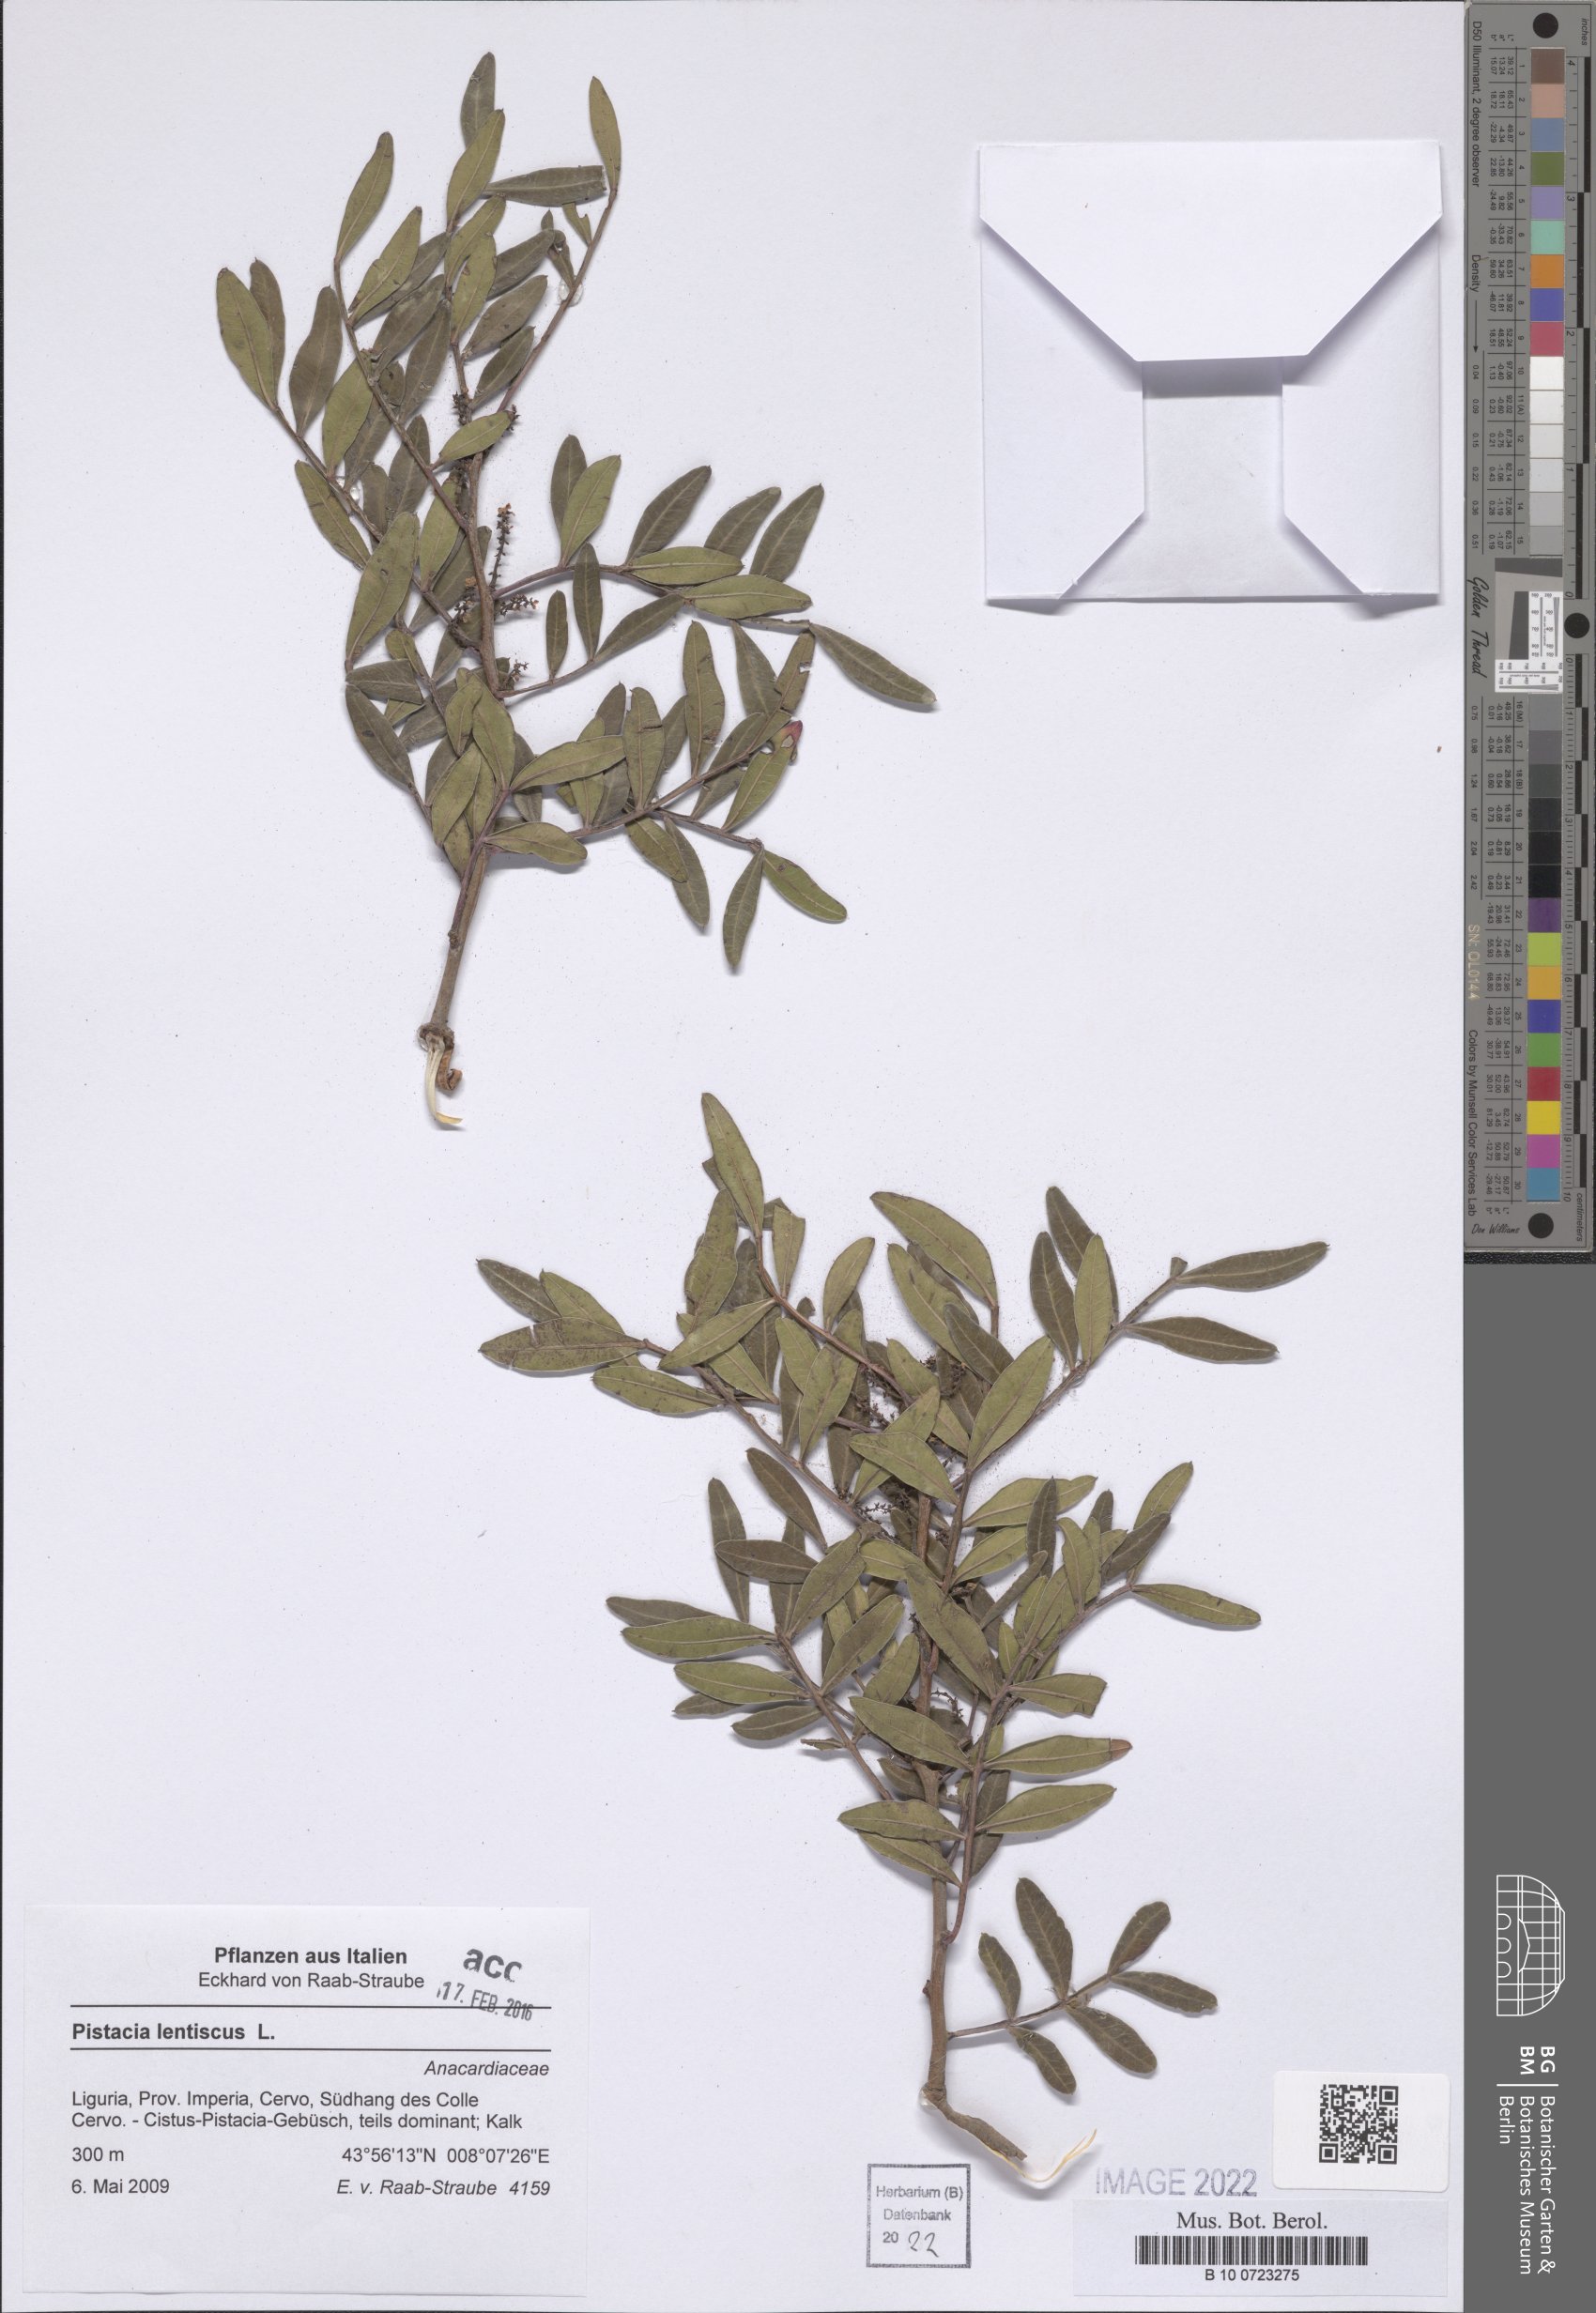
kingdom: Plantae
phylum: Tracheophyta
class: Magnoliopsida
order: Sapindales
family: Anacardiaceae
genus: Pistacia
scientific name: Pistacia lentiscus
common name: Lentisk
